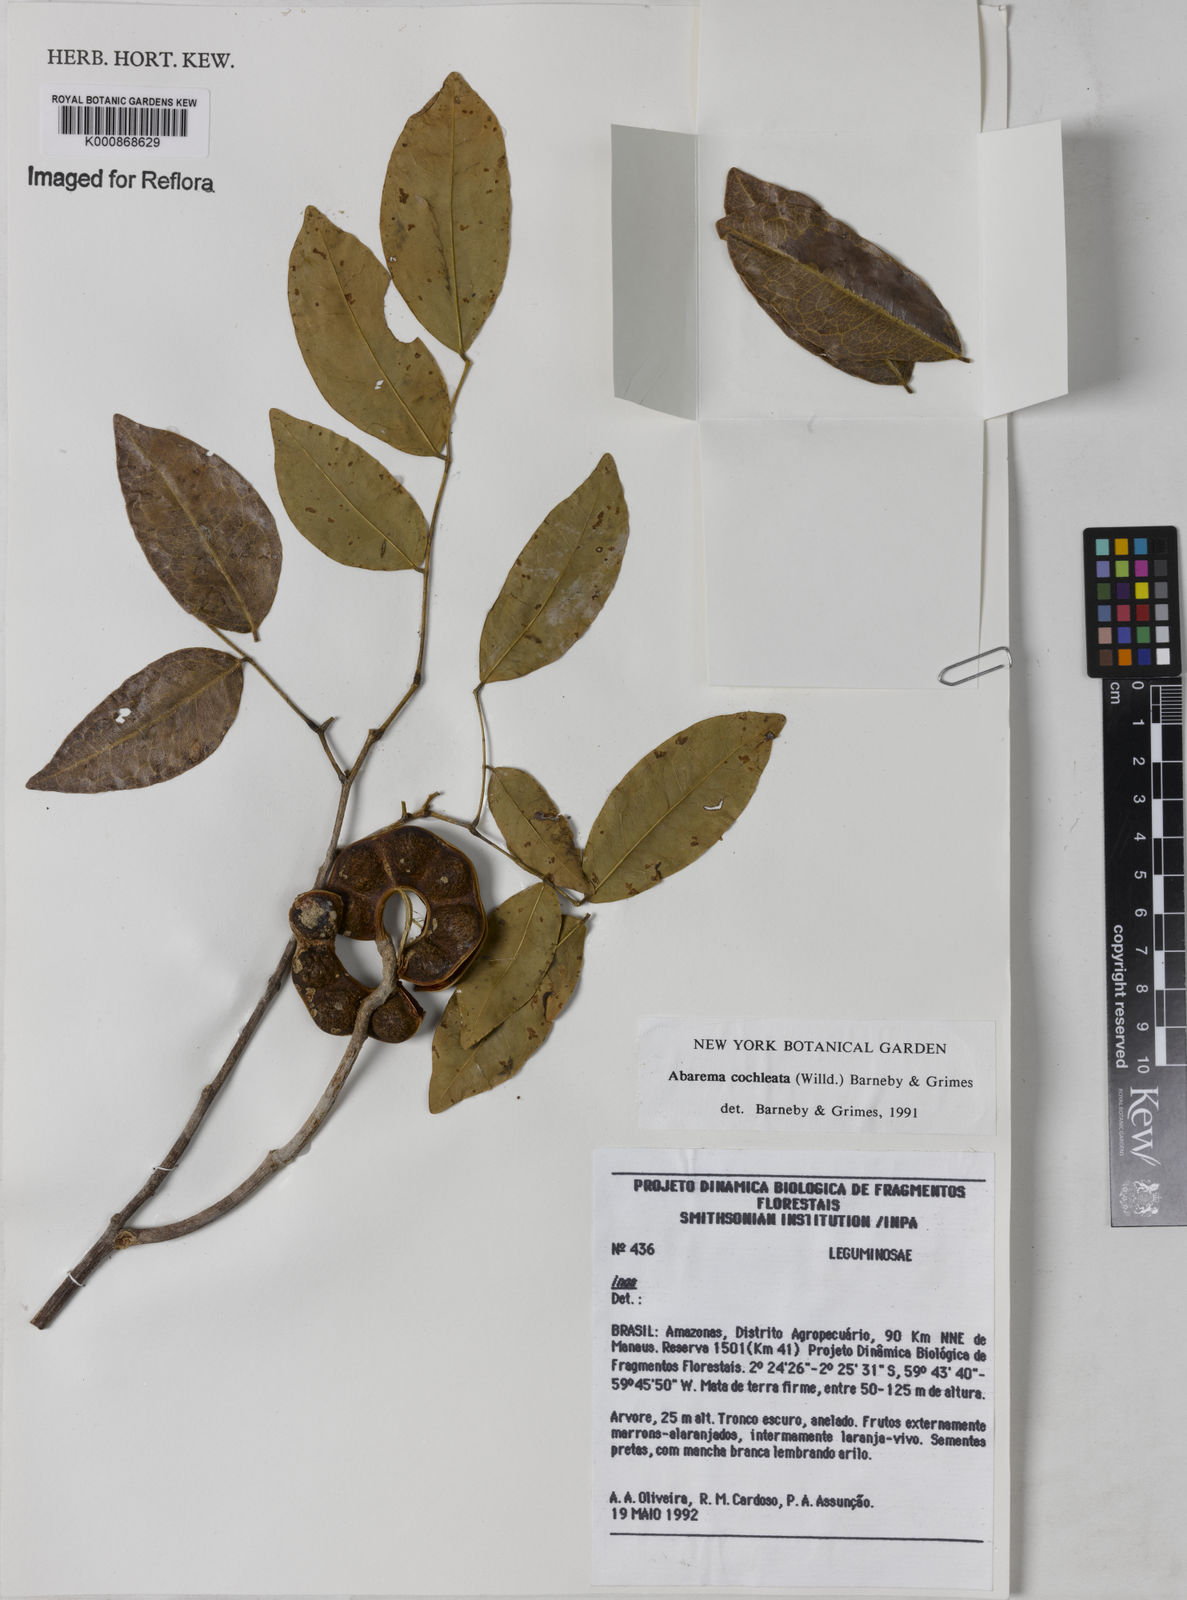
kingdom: Plantae
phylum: Tracheophyta
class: Magnoliopsida
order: Fabales
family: Fabaceae
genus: Jupunba
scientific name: Jupunba cochleata
